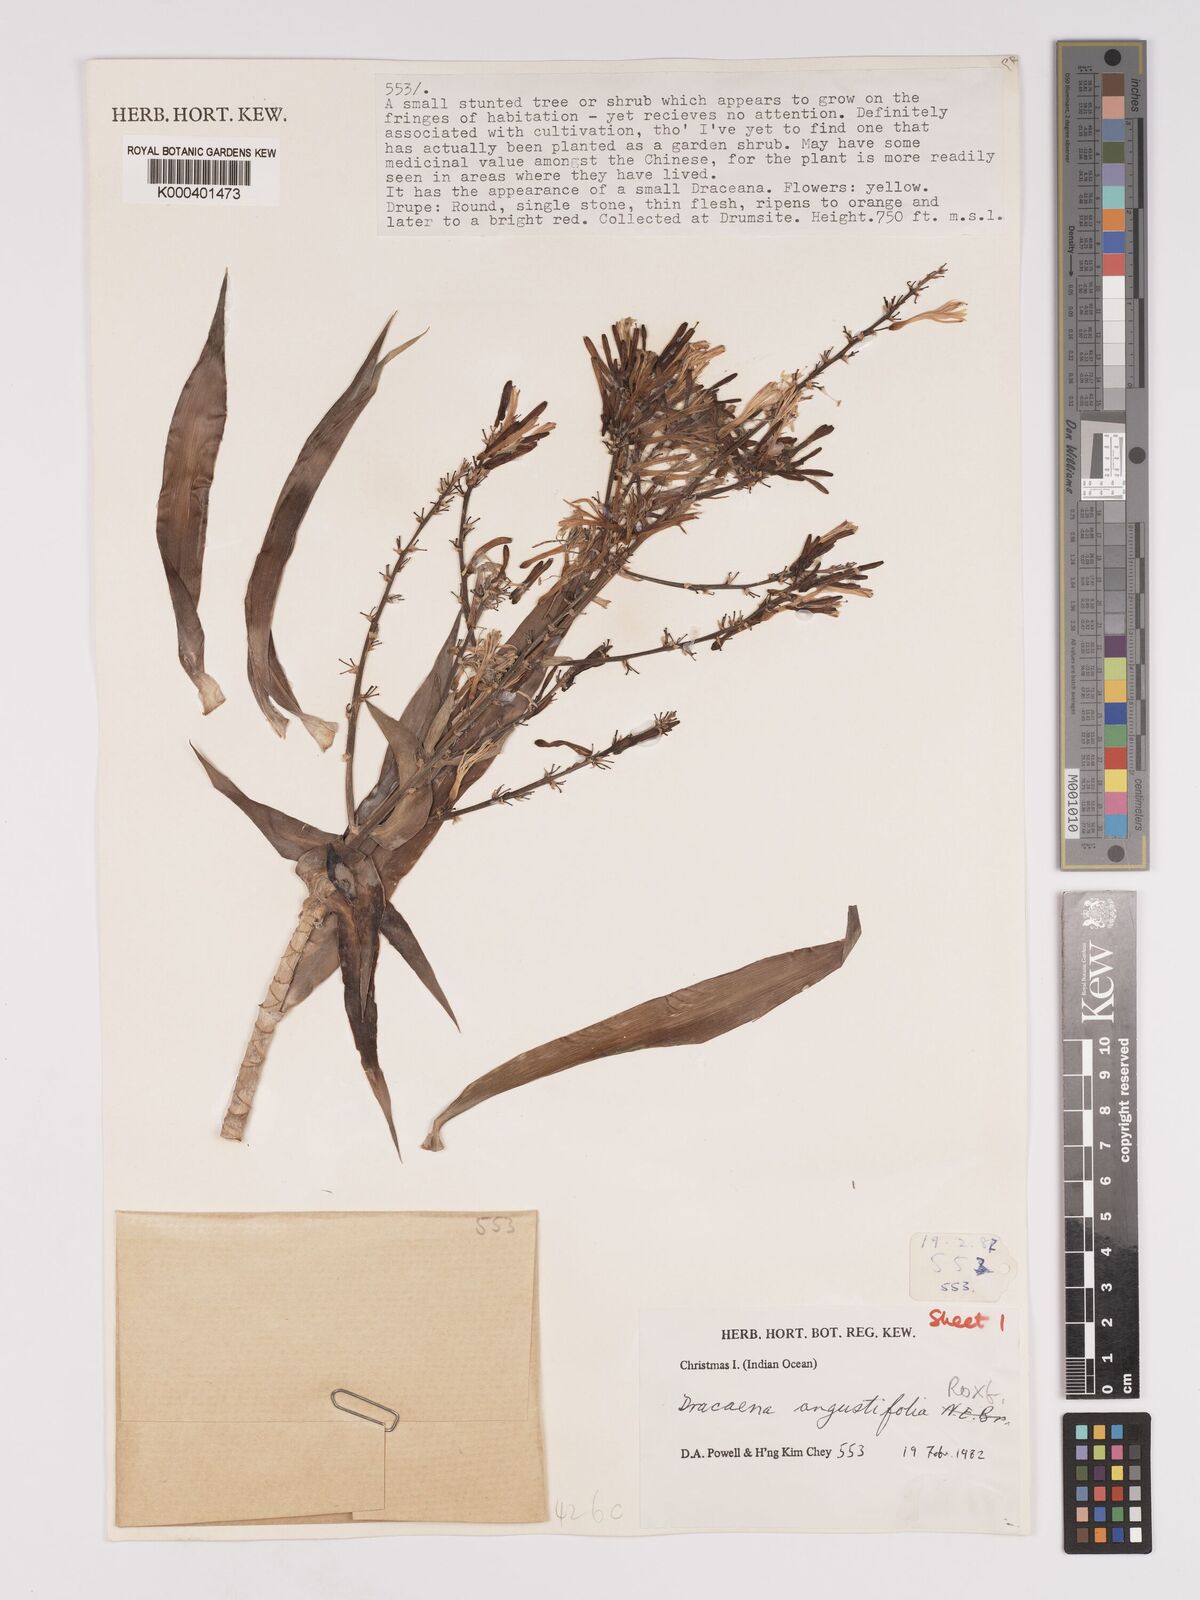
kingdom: Plantae
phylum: Tracheophyta
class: Liliopsida
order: Asparagales
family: Asparagaceae
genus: Dracaena
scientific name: Dracaena angustifolia
